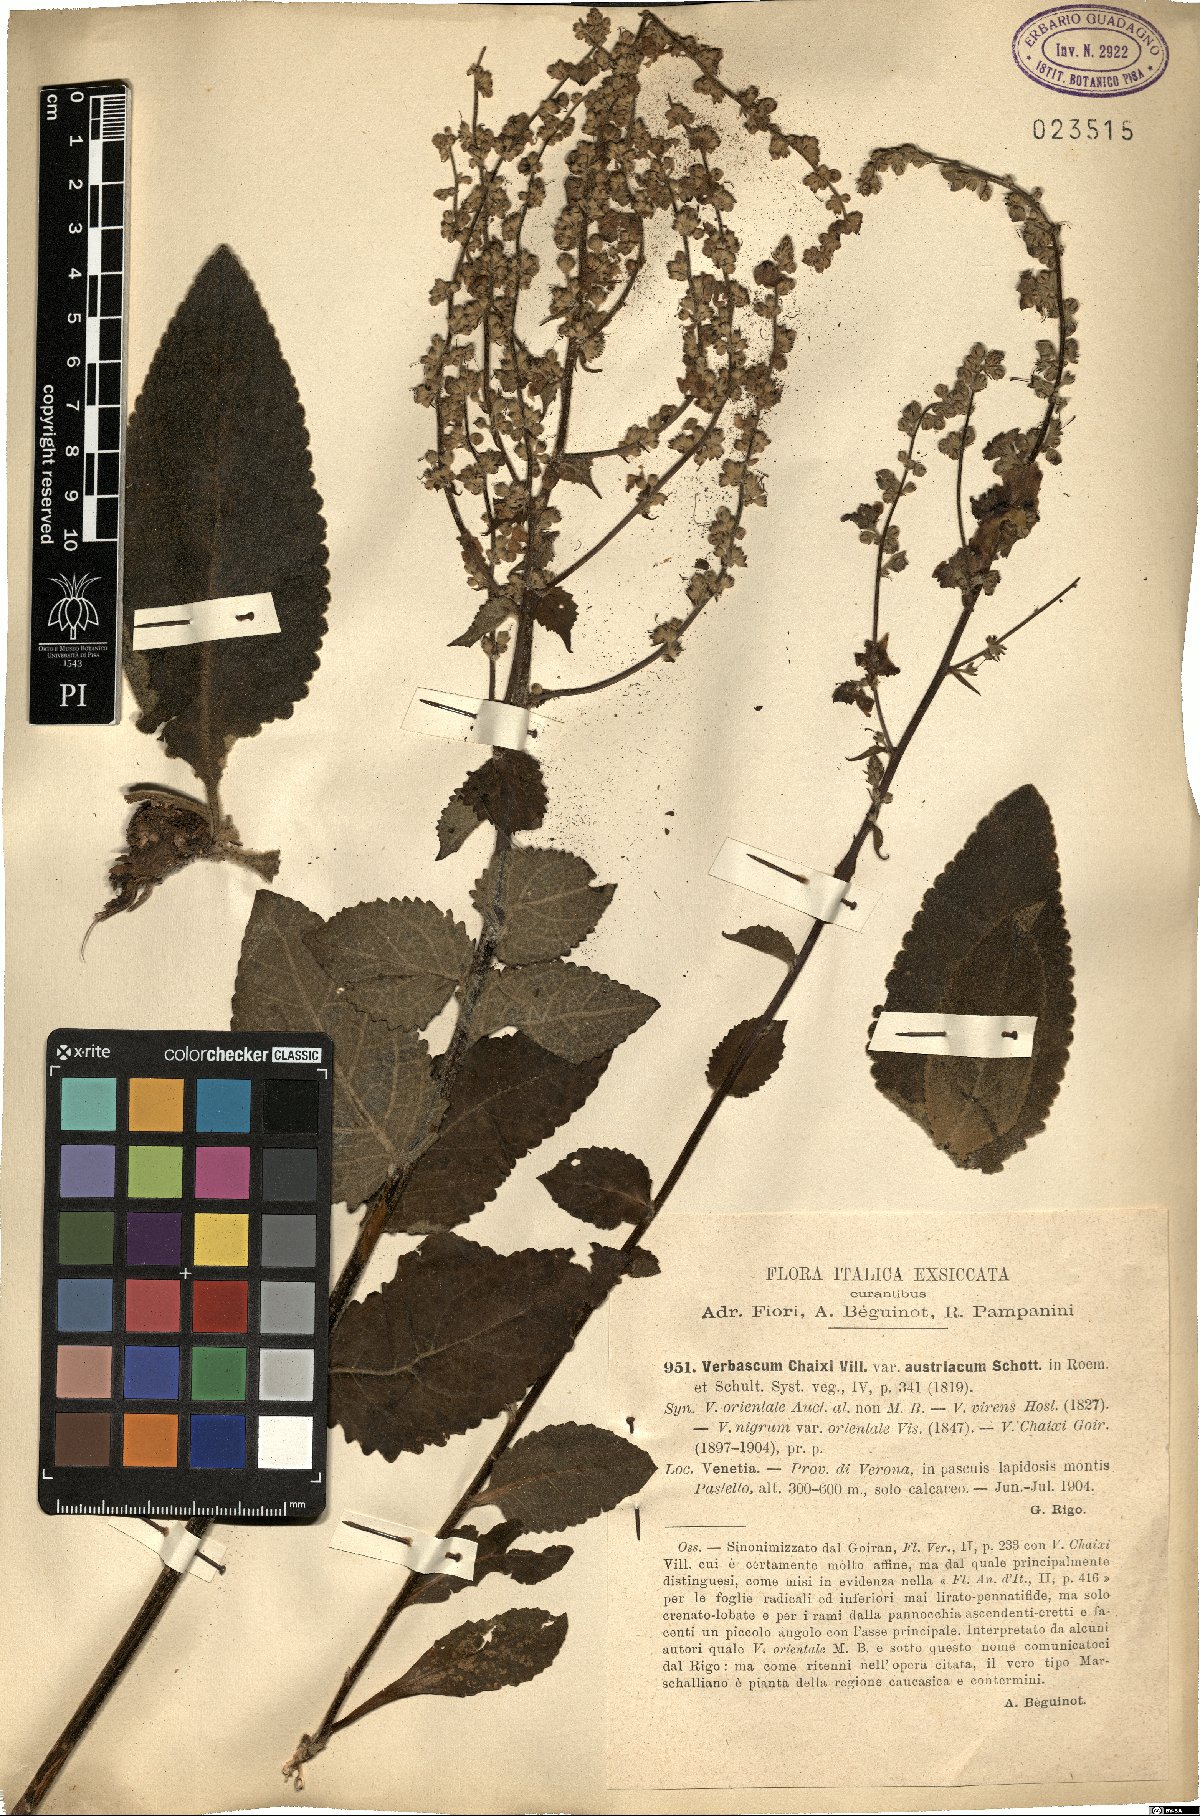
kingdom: Plantae
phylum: Tracheophyta
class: Magnoliopsida
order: Lamiales
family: Scrophulariaceae
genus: Verbascum
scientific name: Verbascum chaixii
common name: Nettle-leaved mullein
